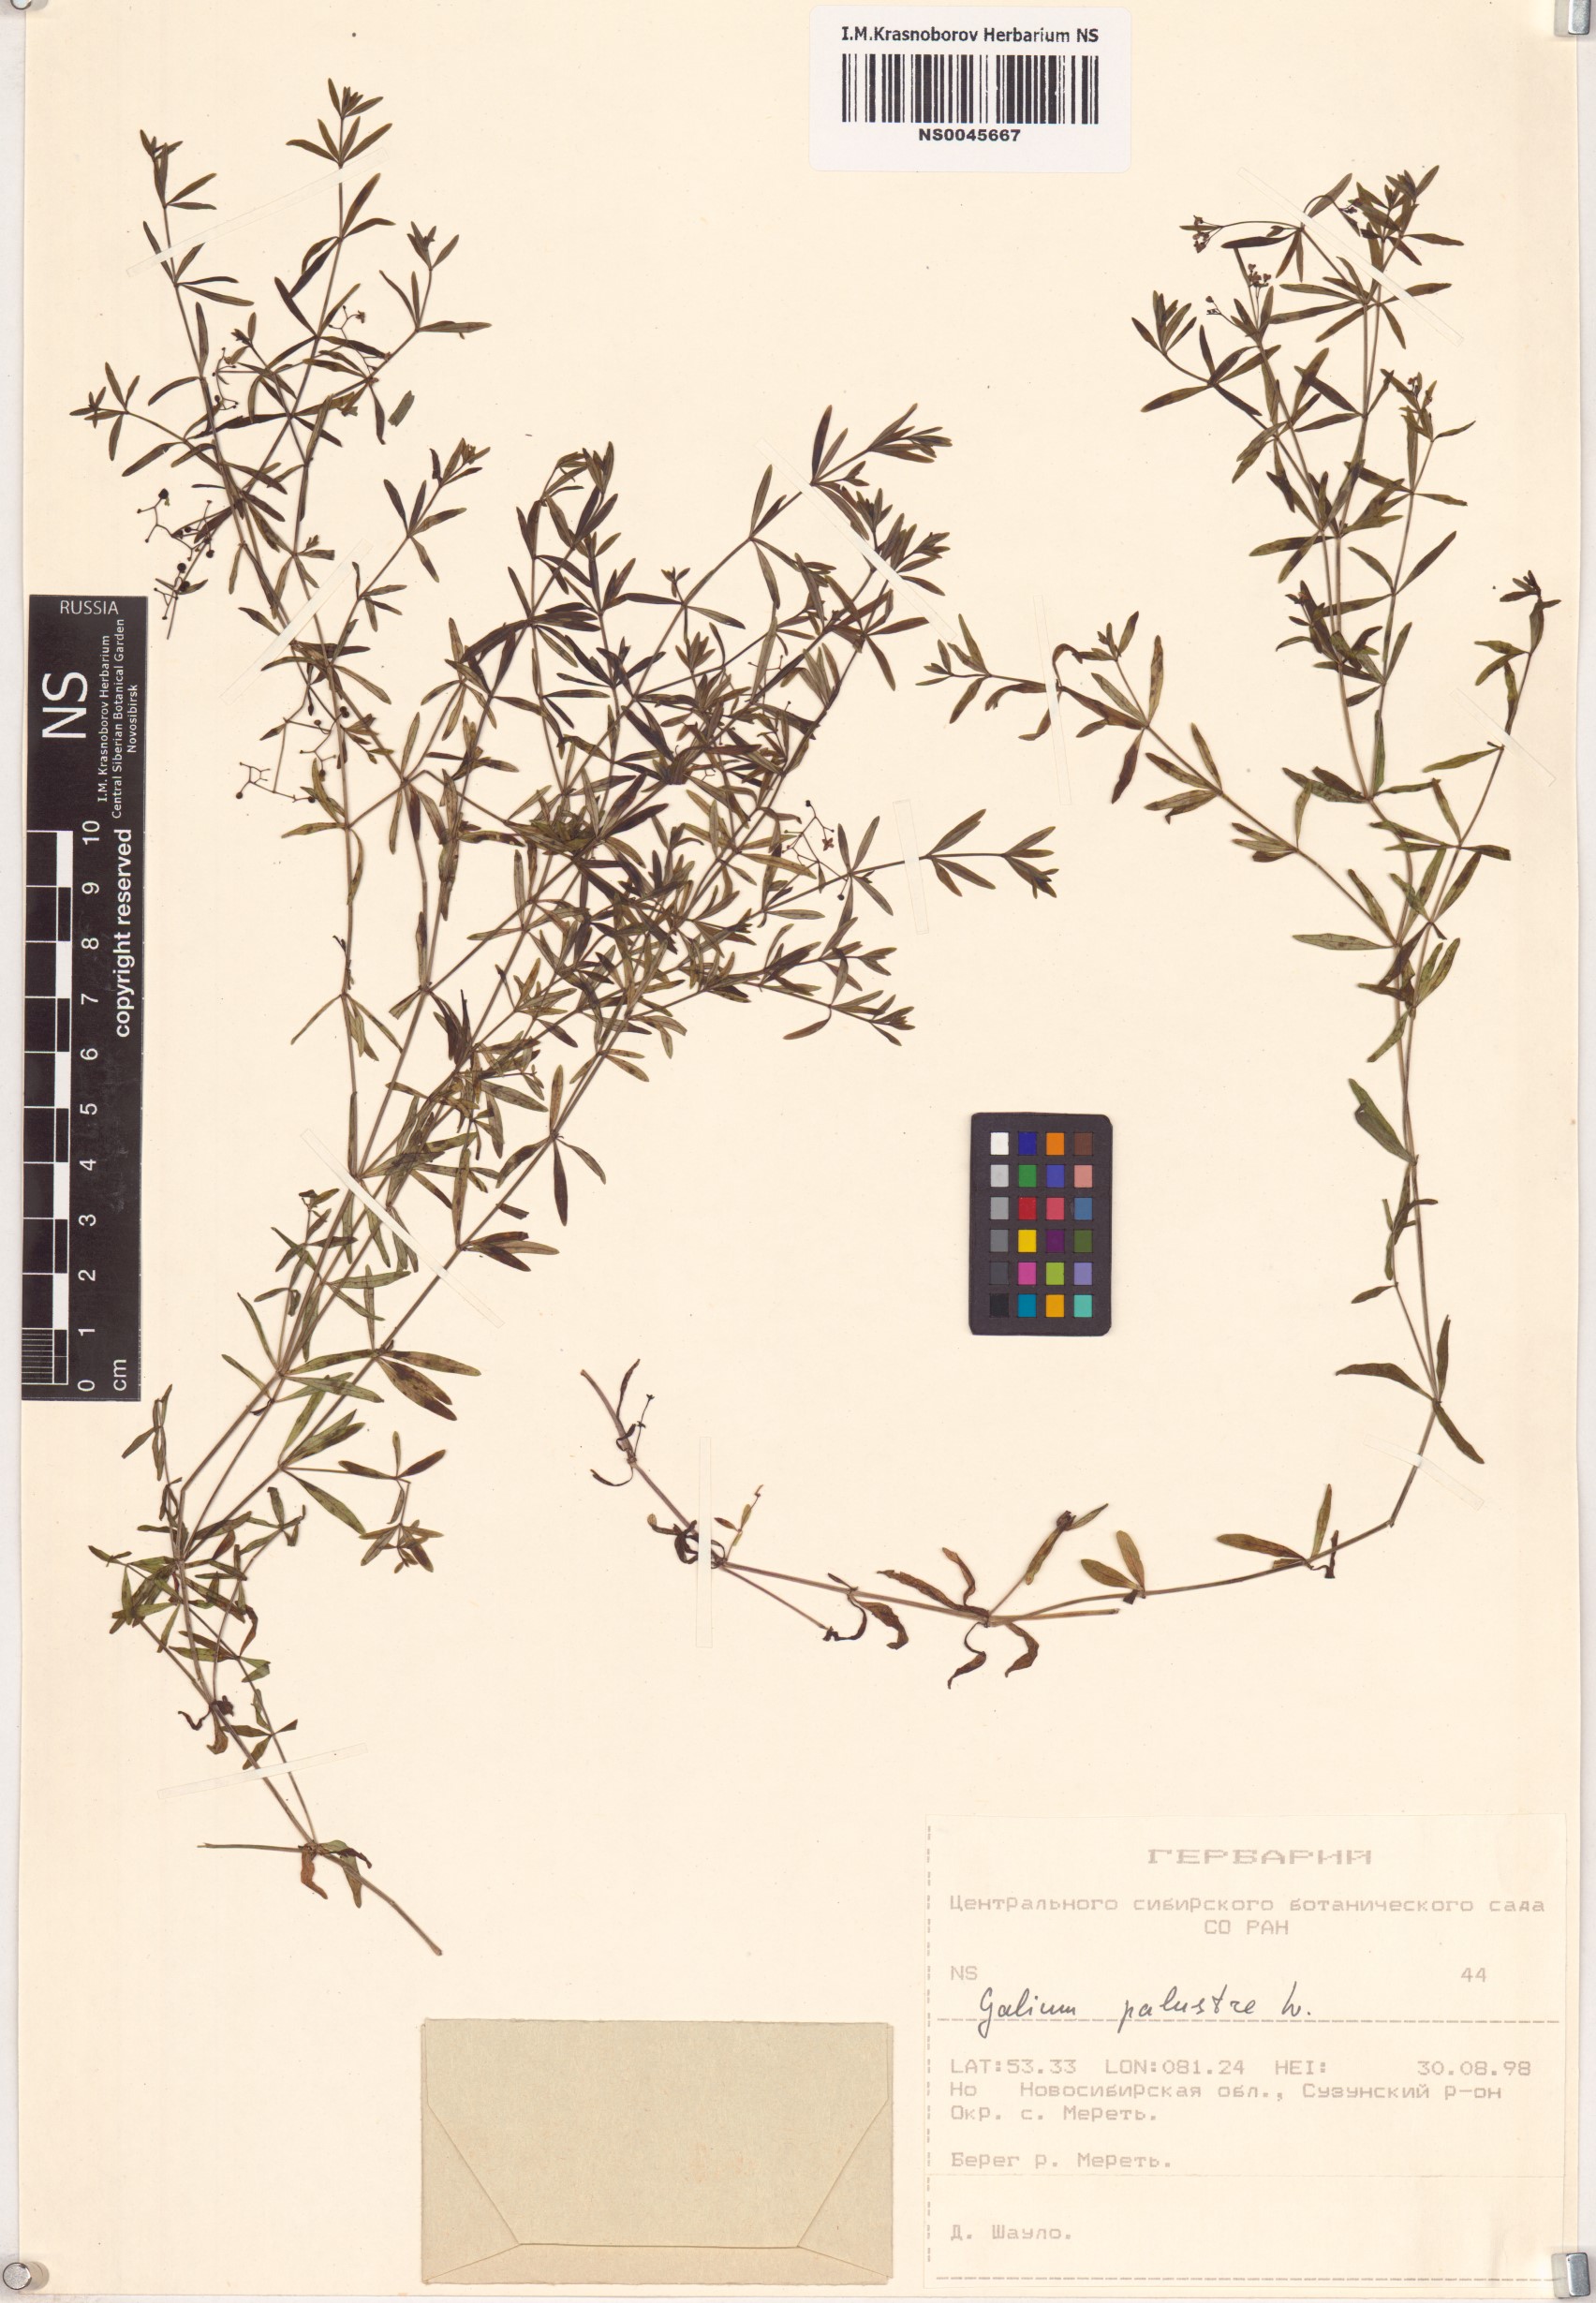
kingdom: Plantae
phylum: Tracheophyta
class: Magnoliopsida
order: Gentianales
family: Rubiaceae
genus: Galium
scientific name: Galium palustre
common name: Common marsh-bedstraw
